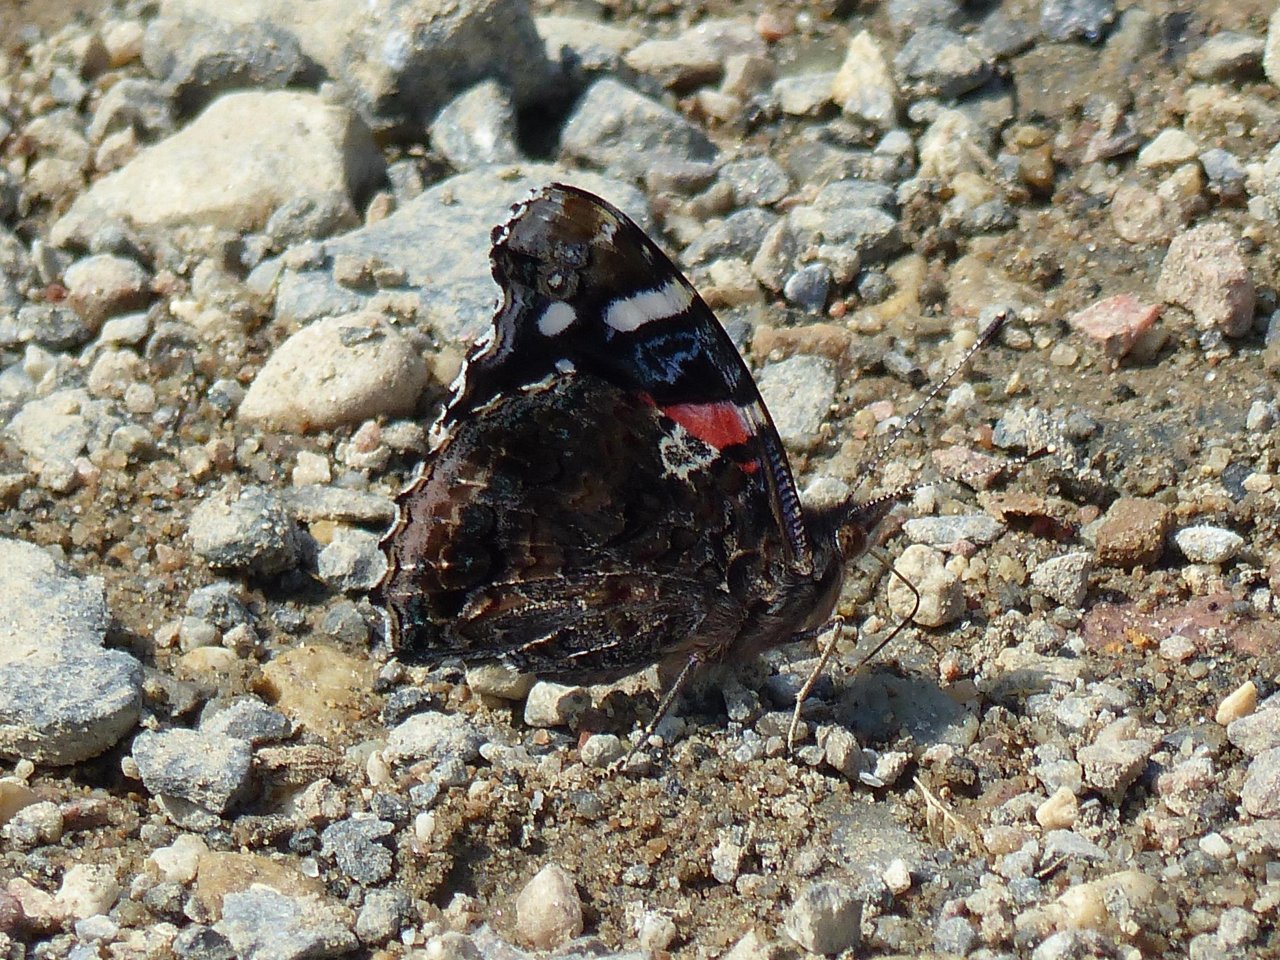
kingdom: Animalia
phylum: Arthropoda
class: Insecta
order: Lepidoptera
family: Nymphalidae
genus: Vanessa
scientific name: Vanessa atalanta
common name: Red Admiral
